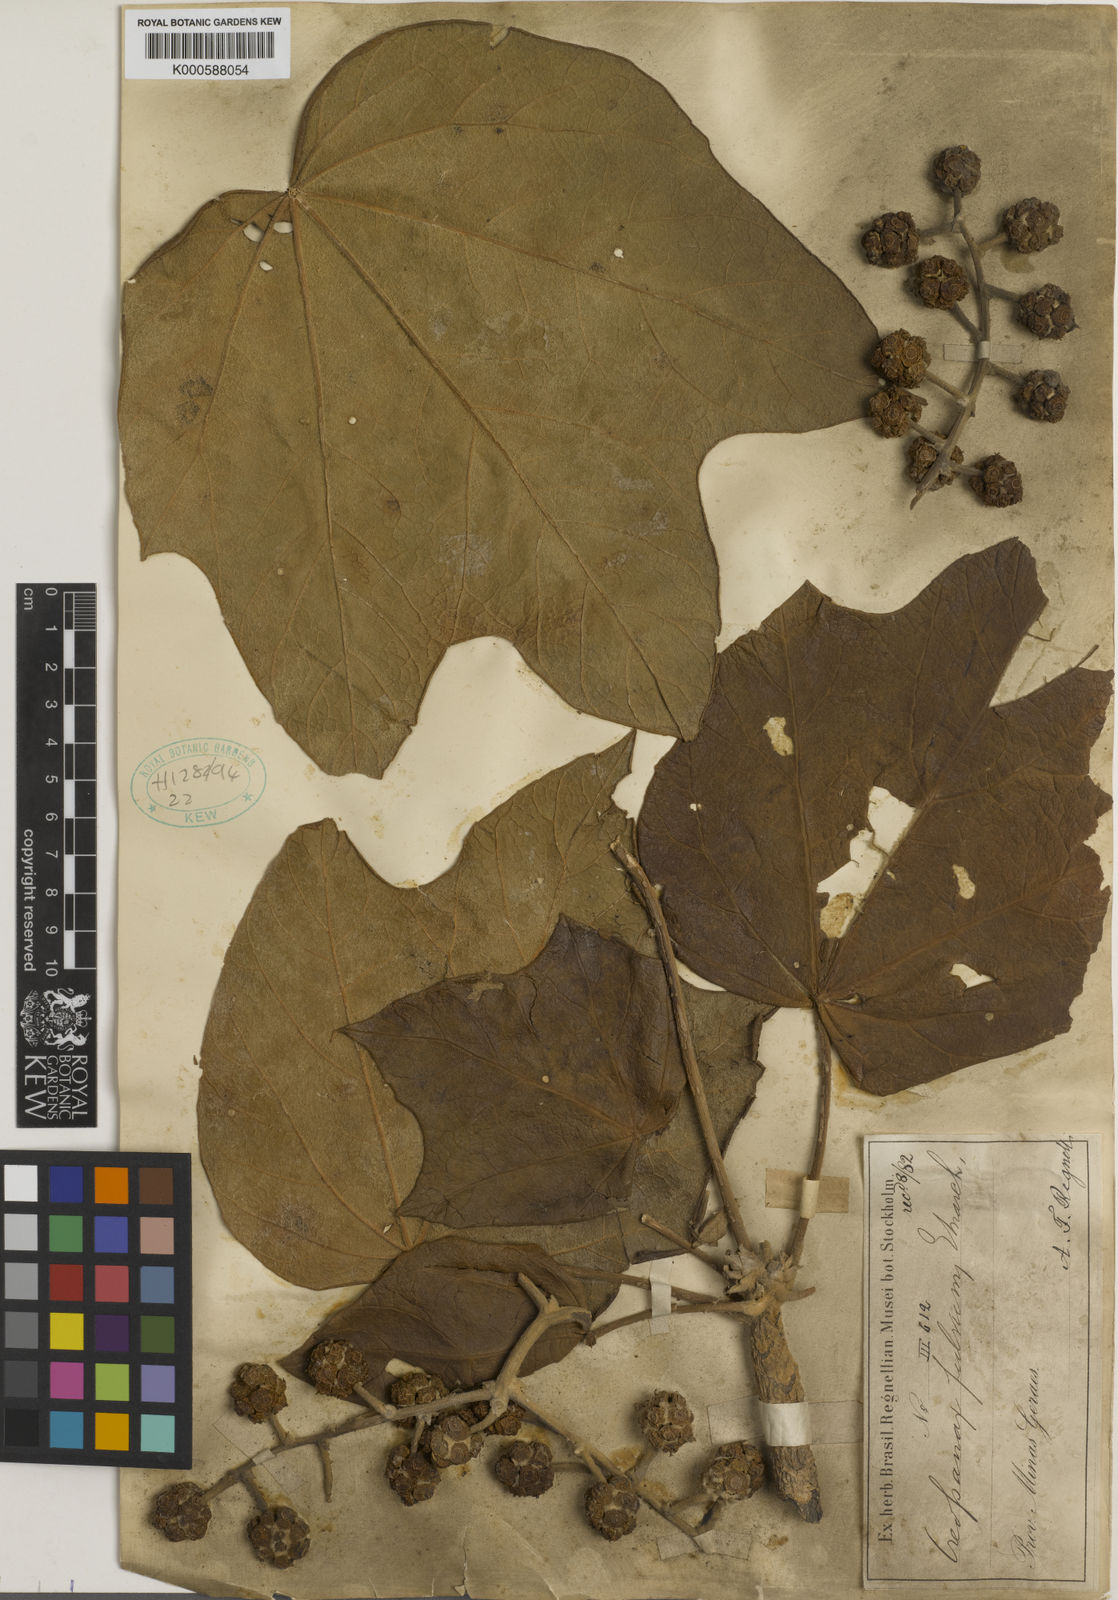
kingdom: Plantae
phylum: Tracheophyta
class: Magnoliopsida
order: Apiales
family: Araliaceae
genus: Oreopanax
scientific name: Oreopanax fulvus
